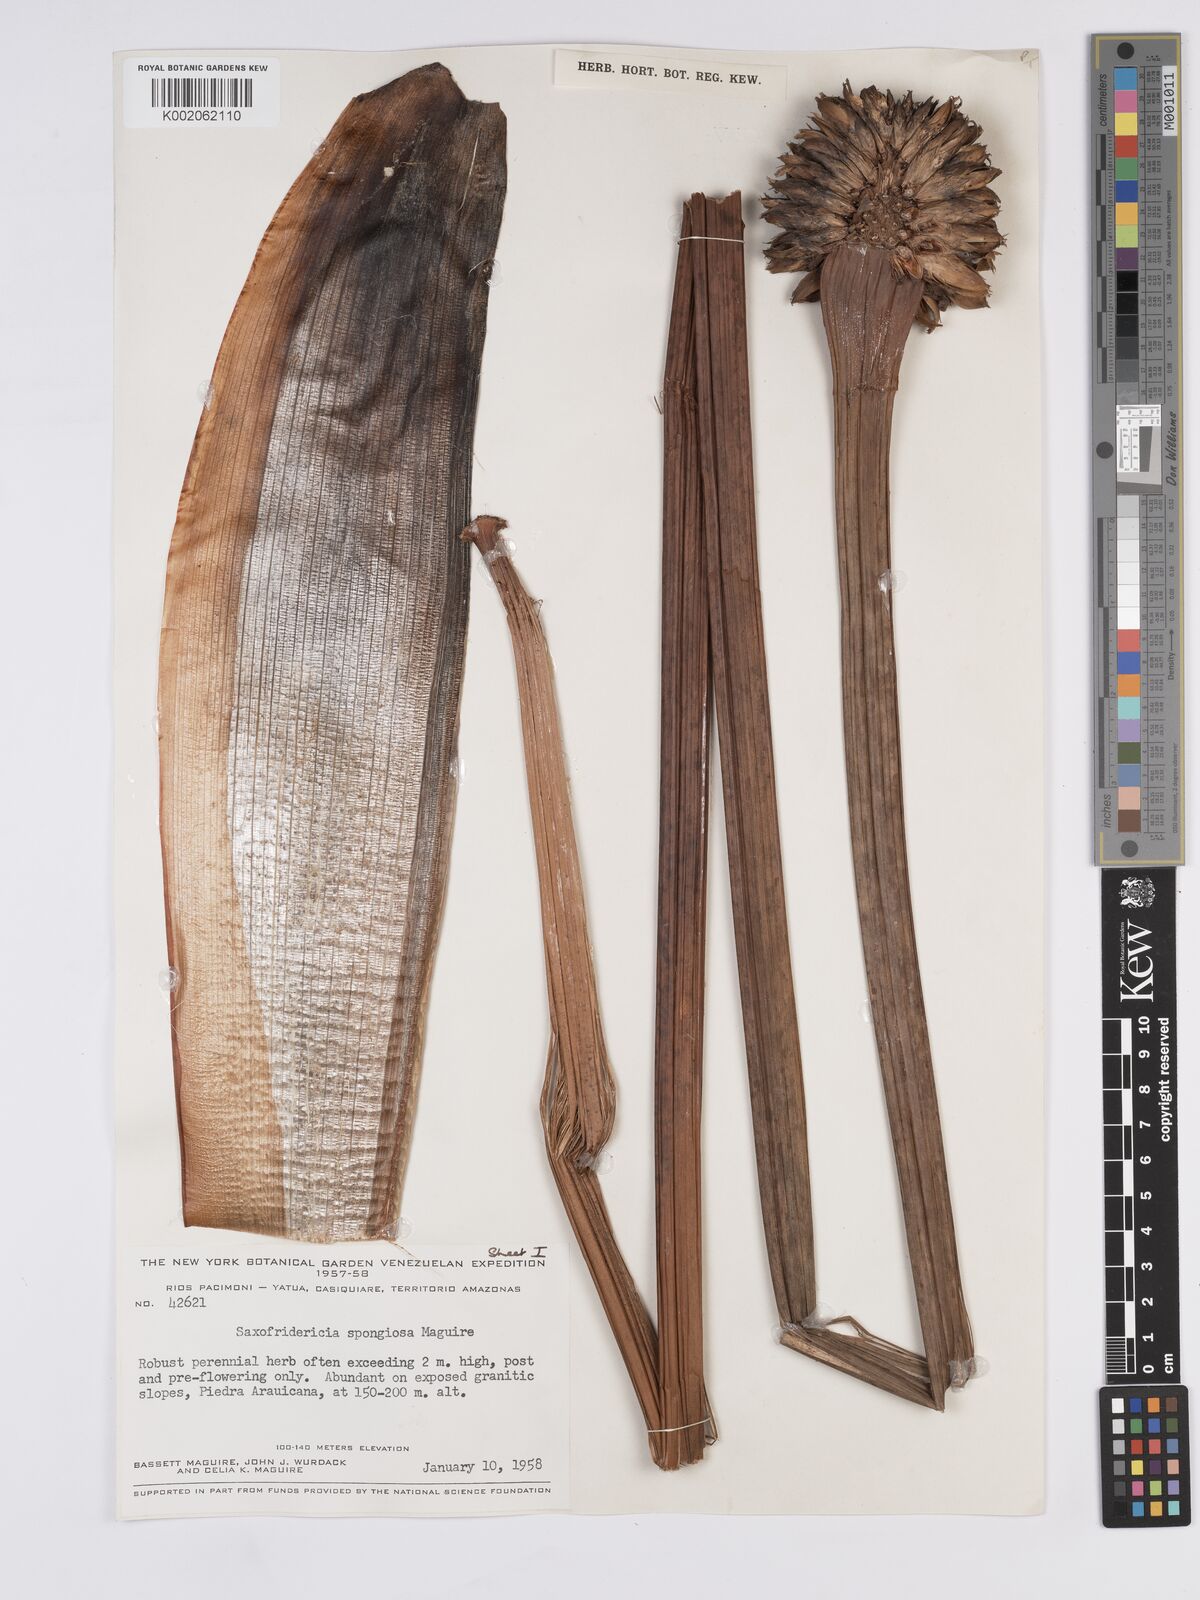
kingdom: Plantae
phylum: Tracheophyta
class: Liliopsida
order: Poales
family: Rapateaceae
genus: Saxofridericia
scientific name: Saxofridericia spongiosa
